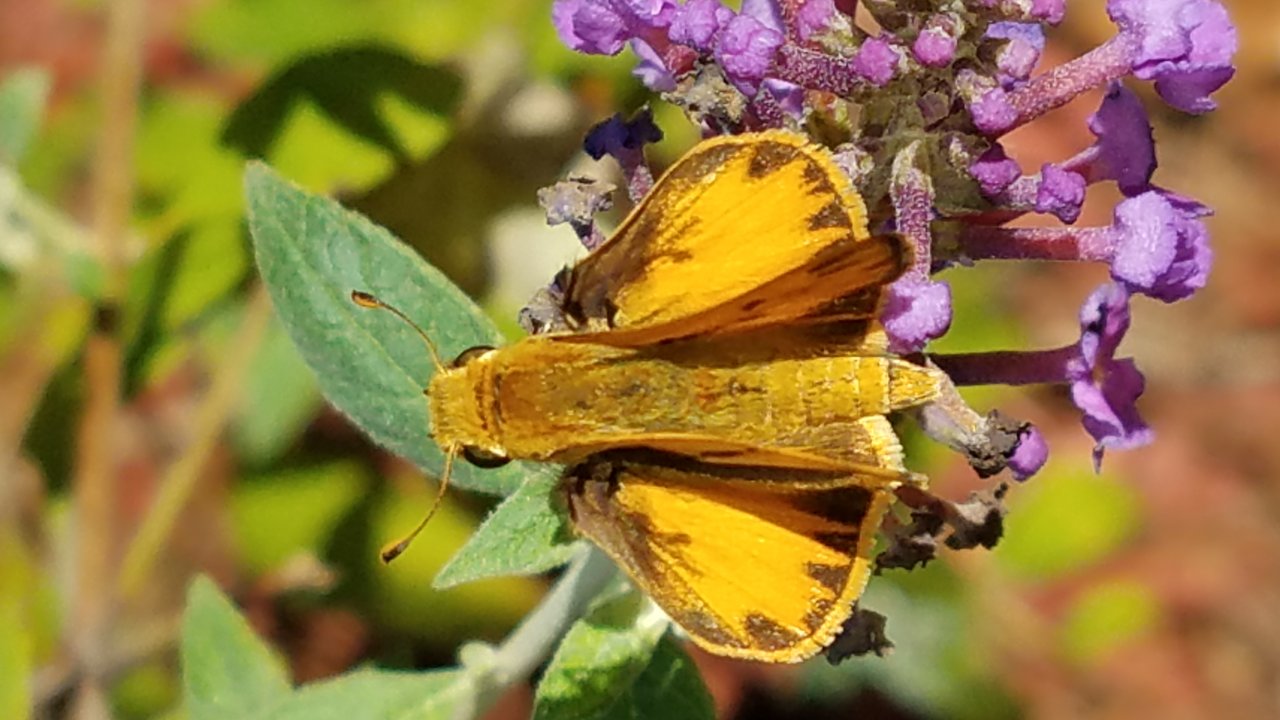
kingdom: Animalia
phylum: Arthropoda
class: Insecta
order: Lepidoptera
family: Hesperiidae
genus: Hylephila
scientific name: Hylephila phyleus
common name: Fiery Skipper
